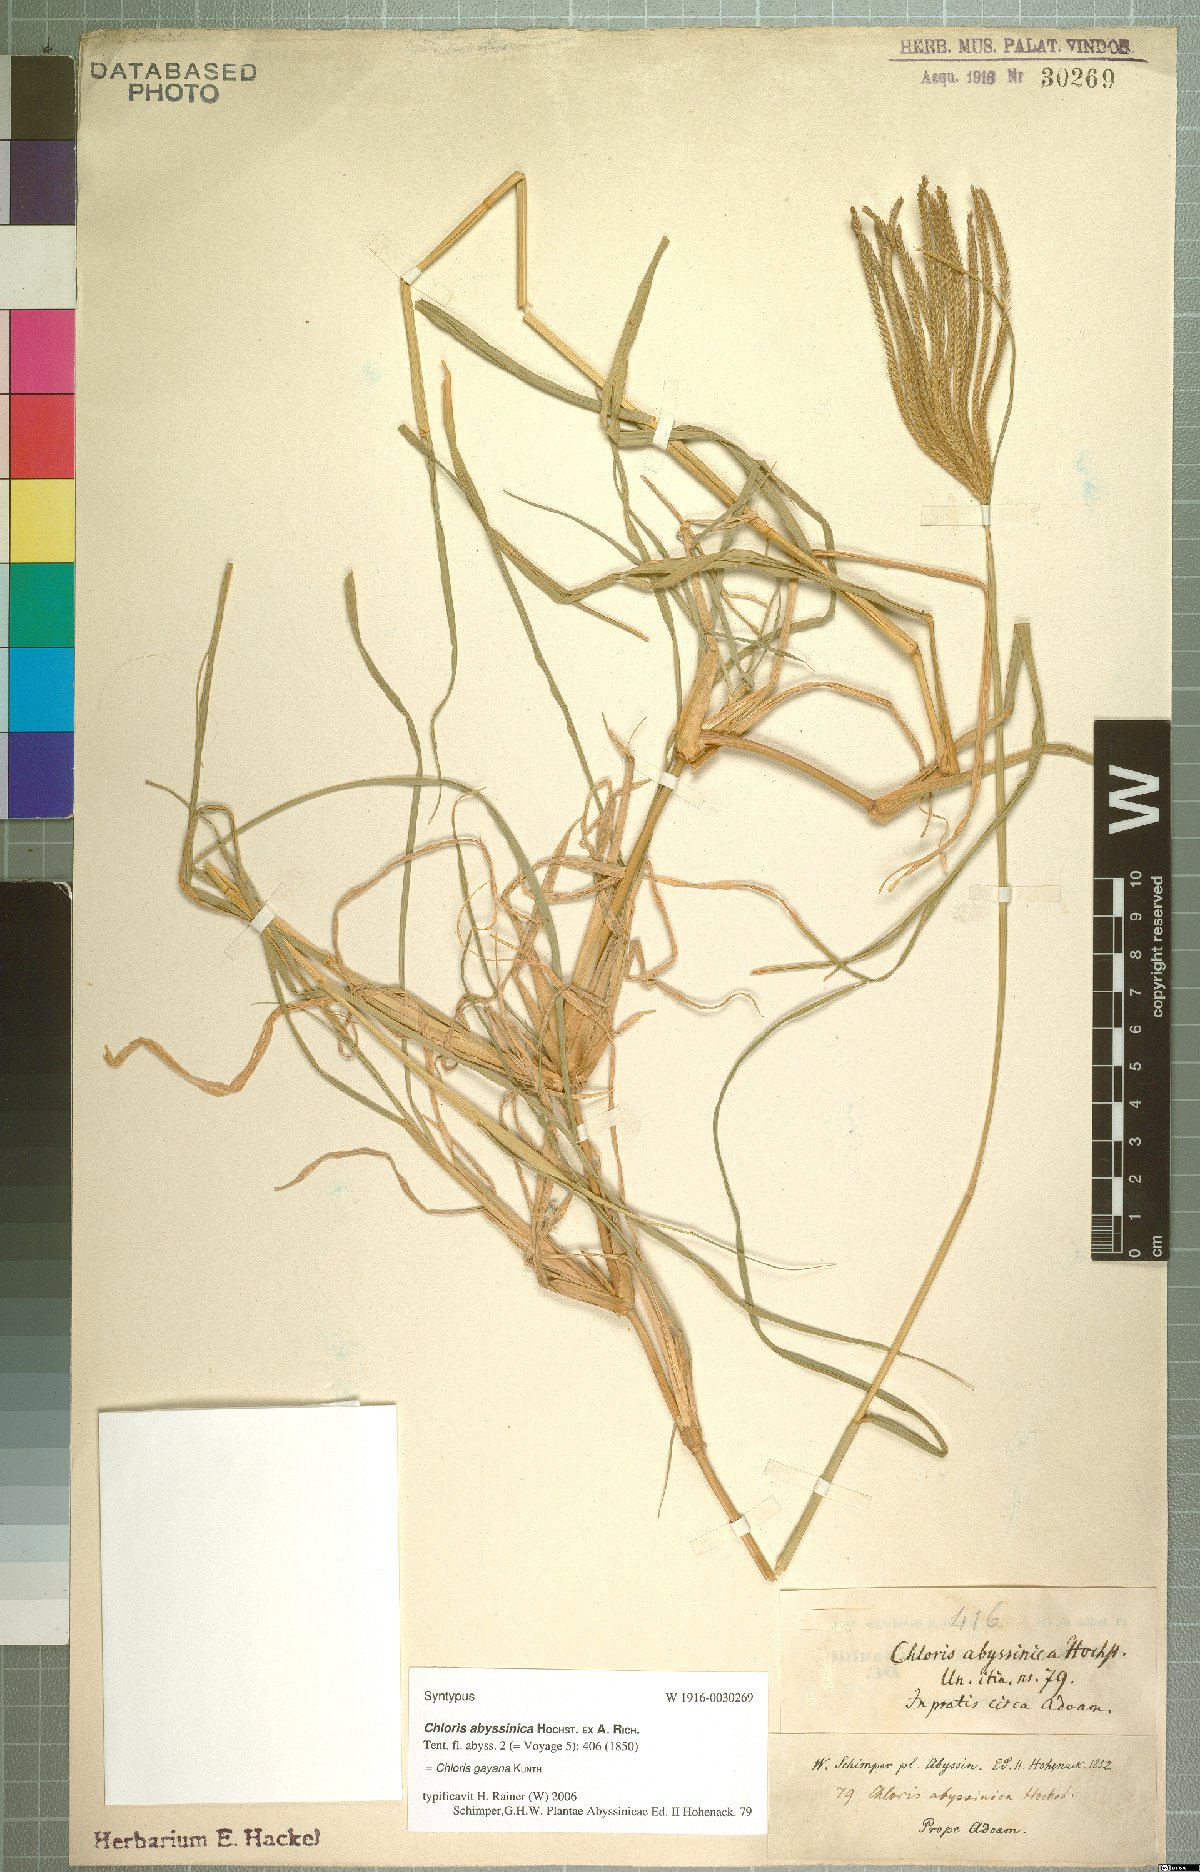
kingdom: Plantae
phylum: Tracheophyta
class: Liliopsida
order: Poales
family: Poaceae
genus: Chloris
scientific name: Chloris gayana
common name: Rhodes grass
